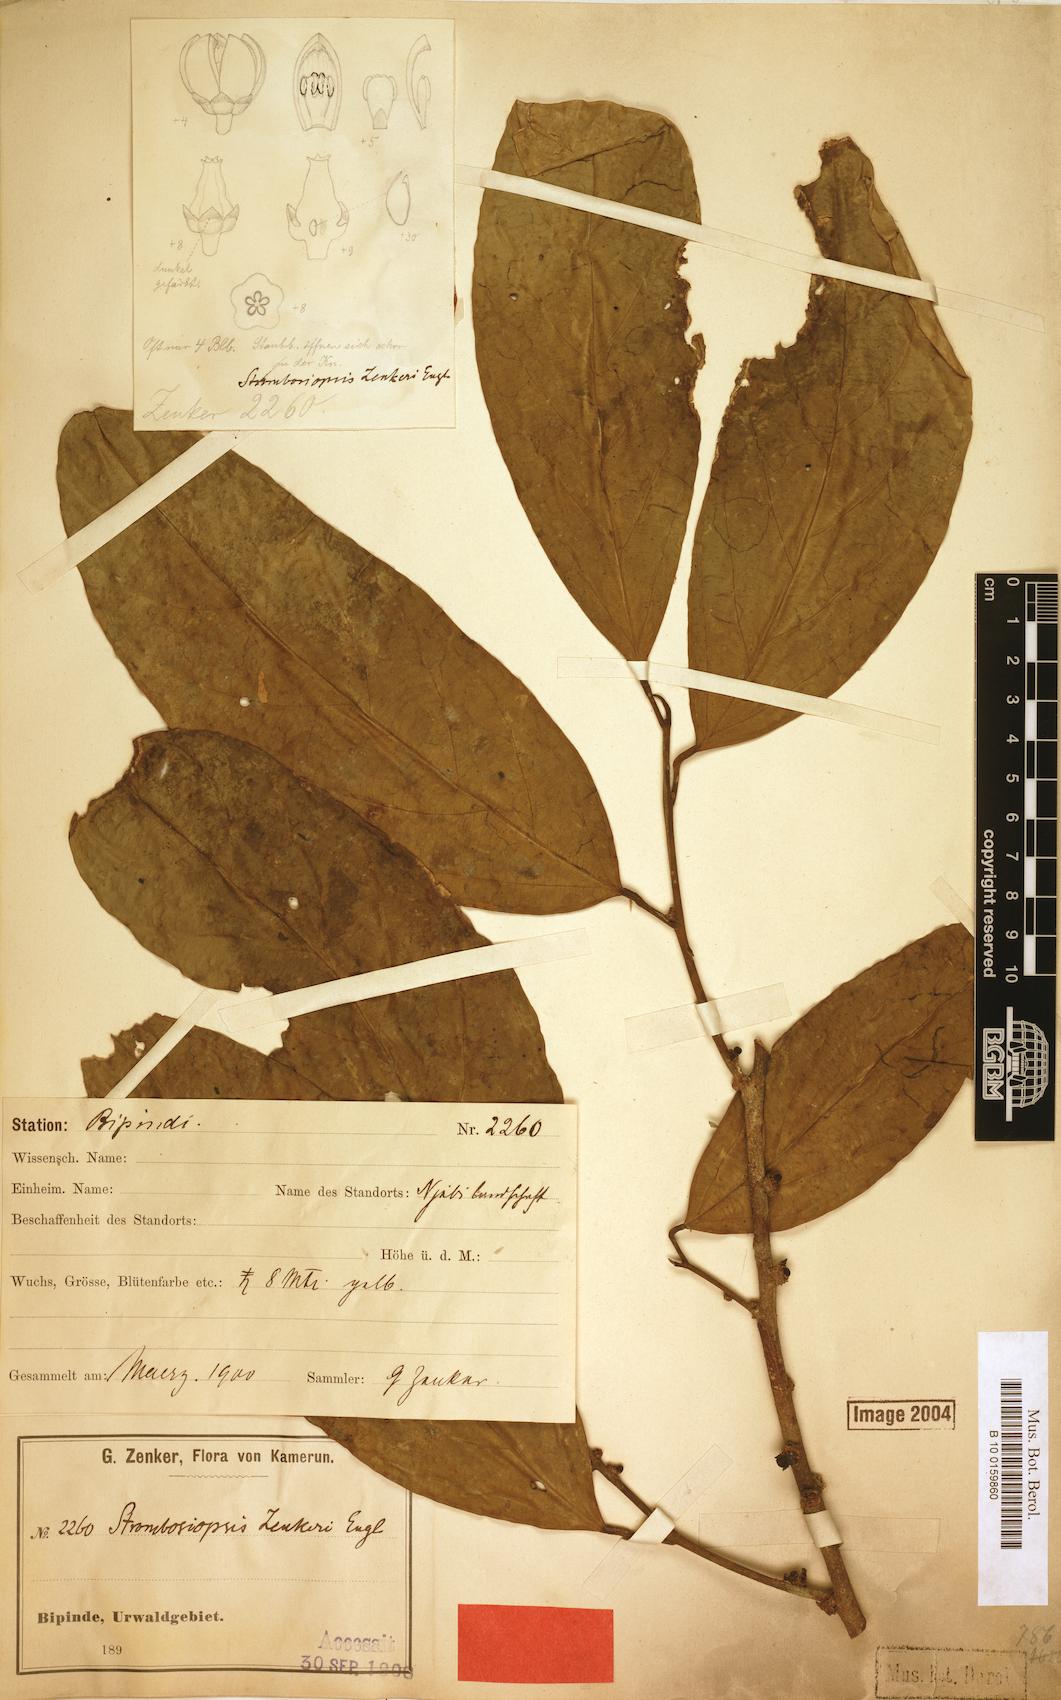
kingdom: Plantae
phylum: Tracheophyta
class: Magnoliopsida
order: Santalales
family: Strombosiaceae
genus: Diogoa
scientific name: Diogoa zenkeri
